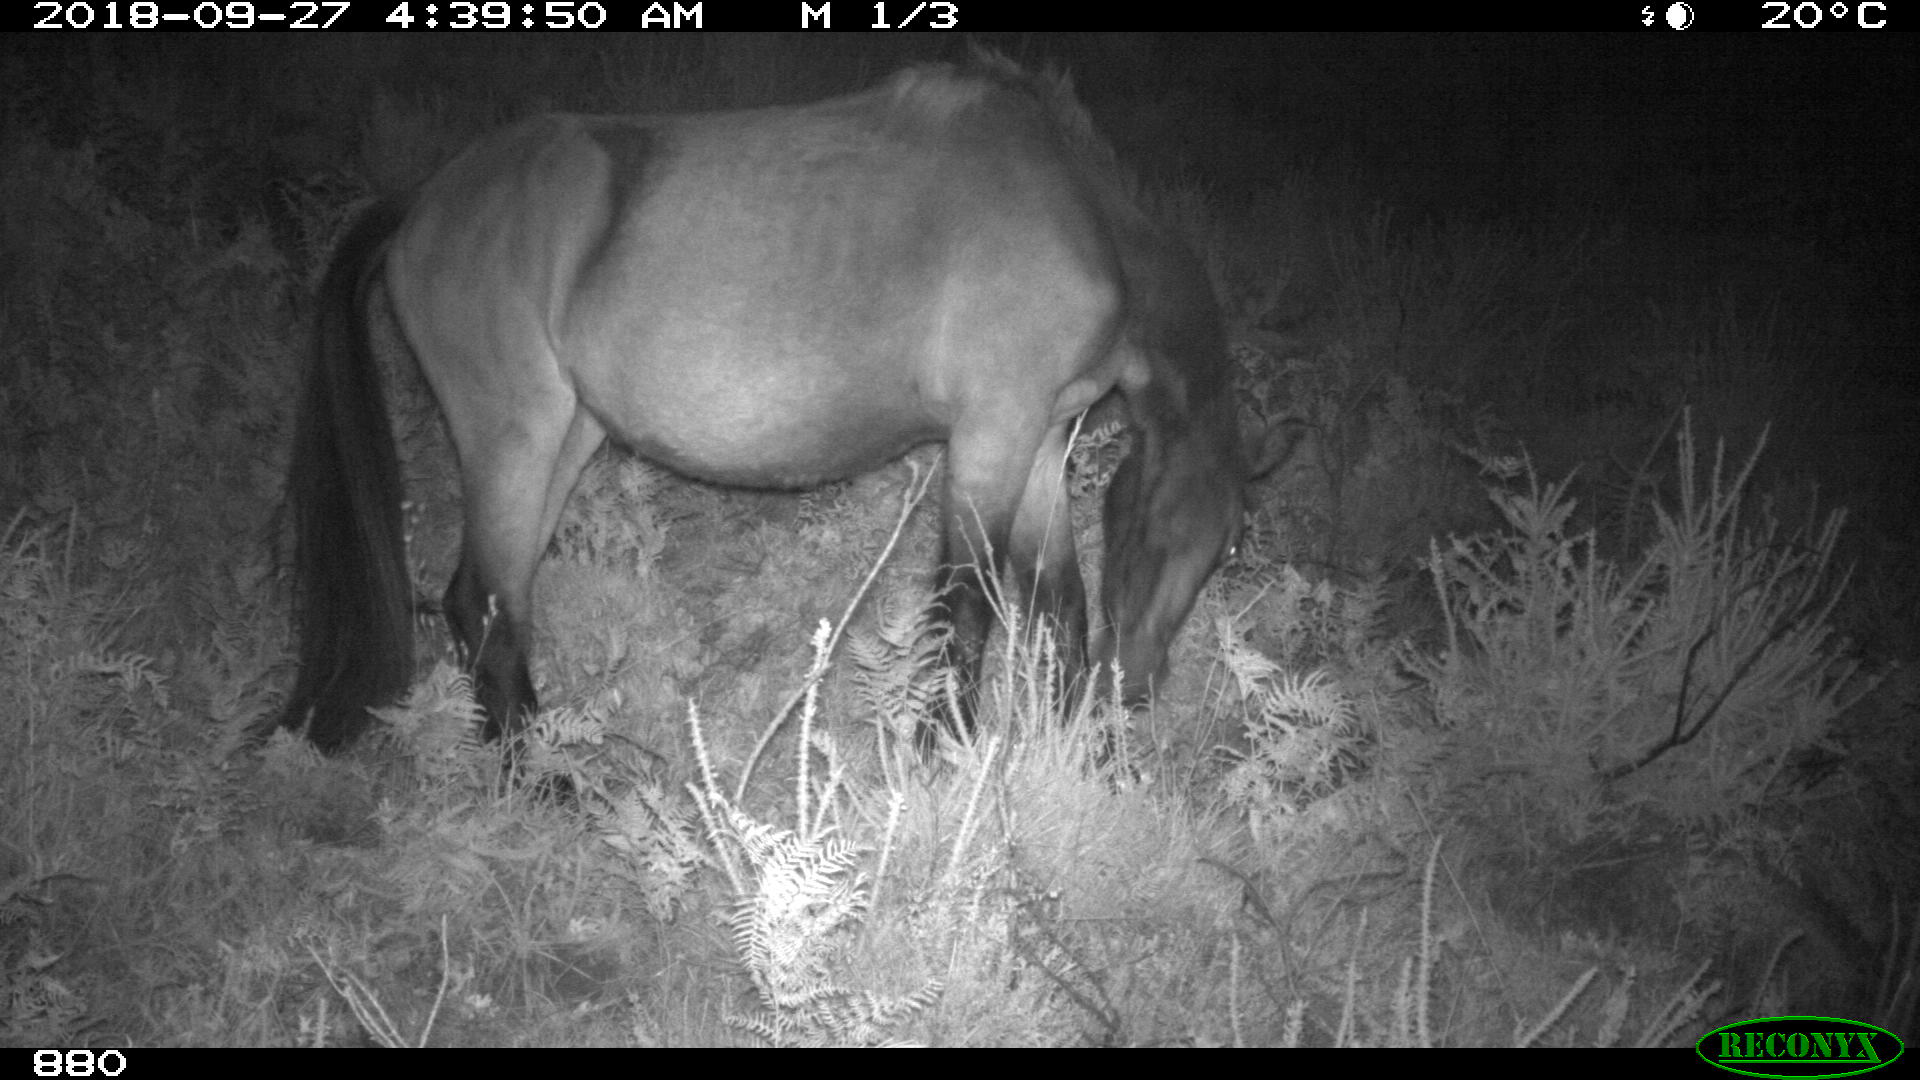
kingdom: Animalia
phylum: Chordata
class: Mammalia
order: Perissodactyla
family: Equidae
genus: Equus
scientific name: Equus caballus
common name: Horse
